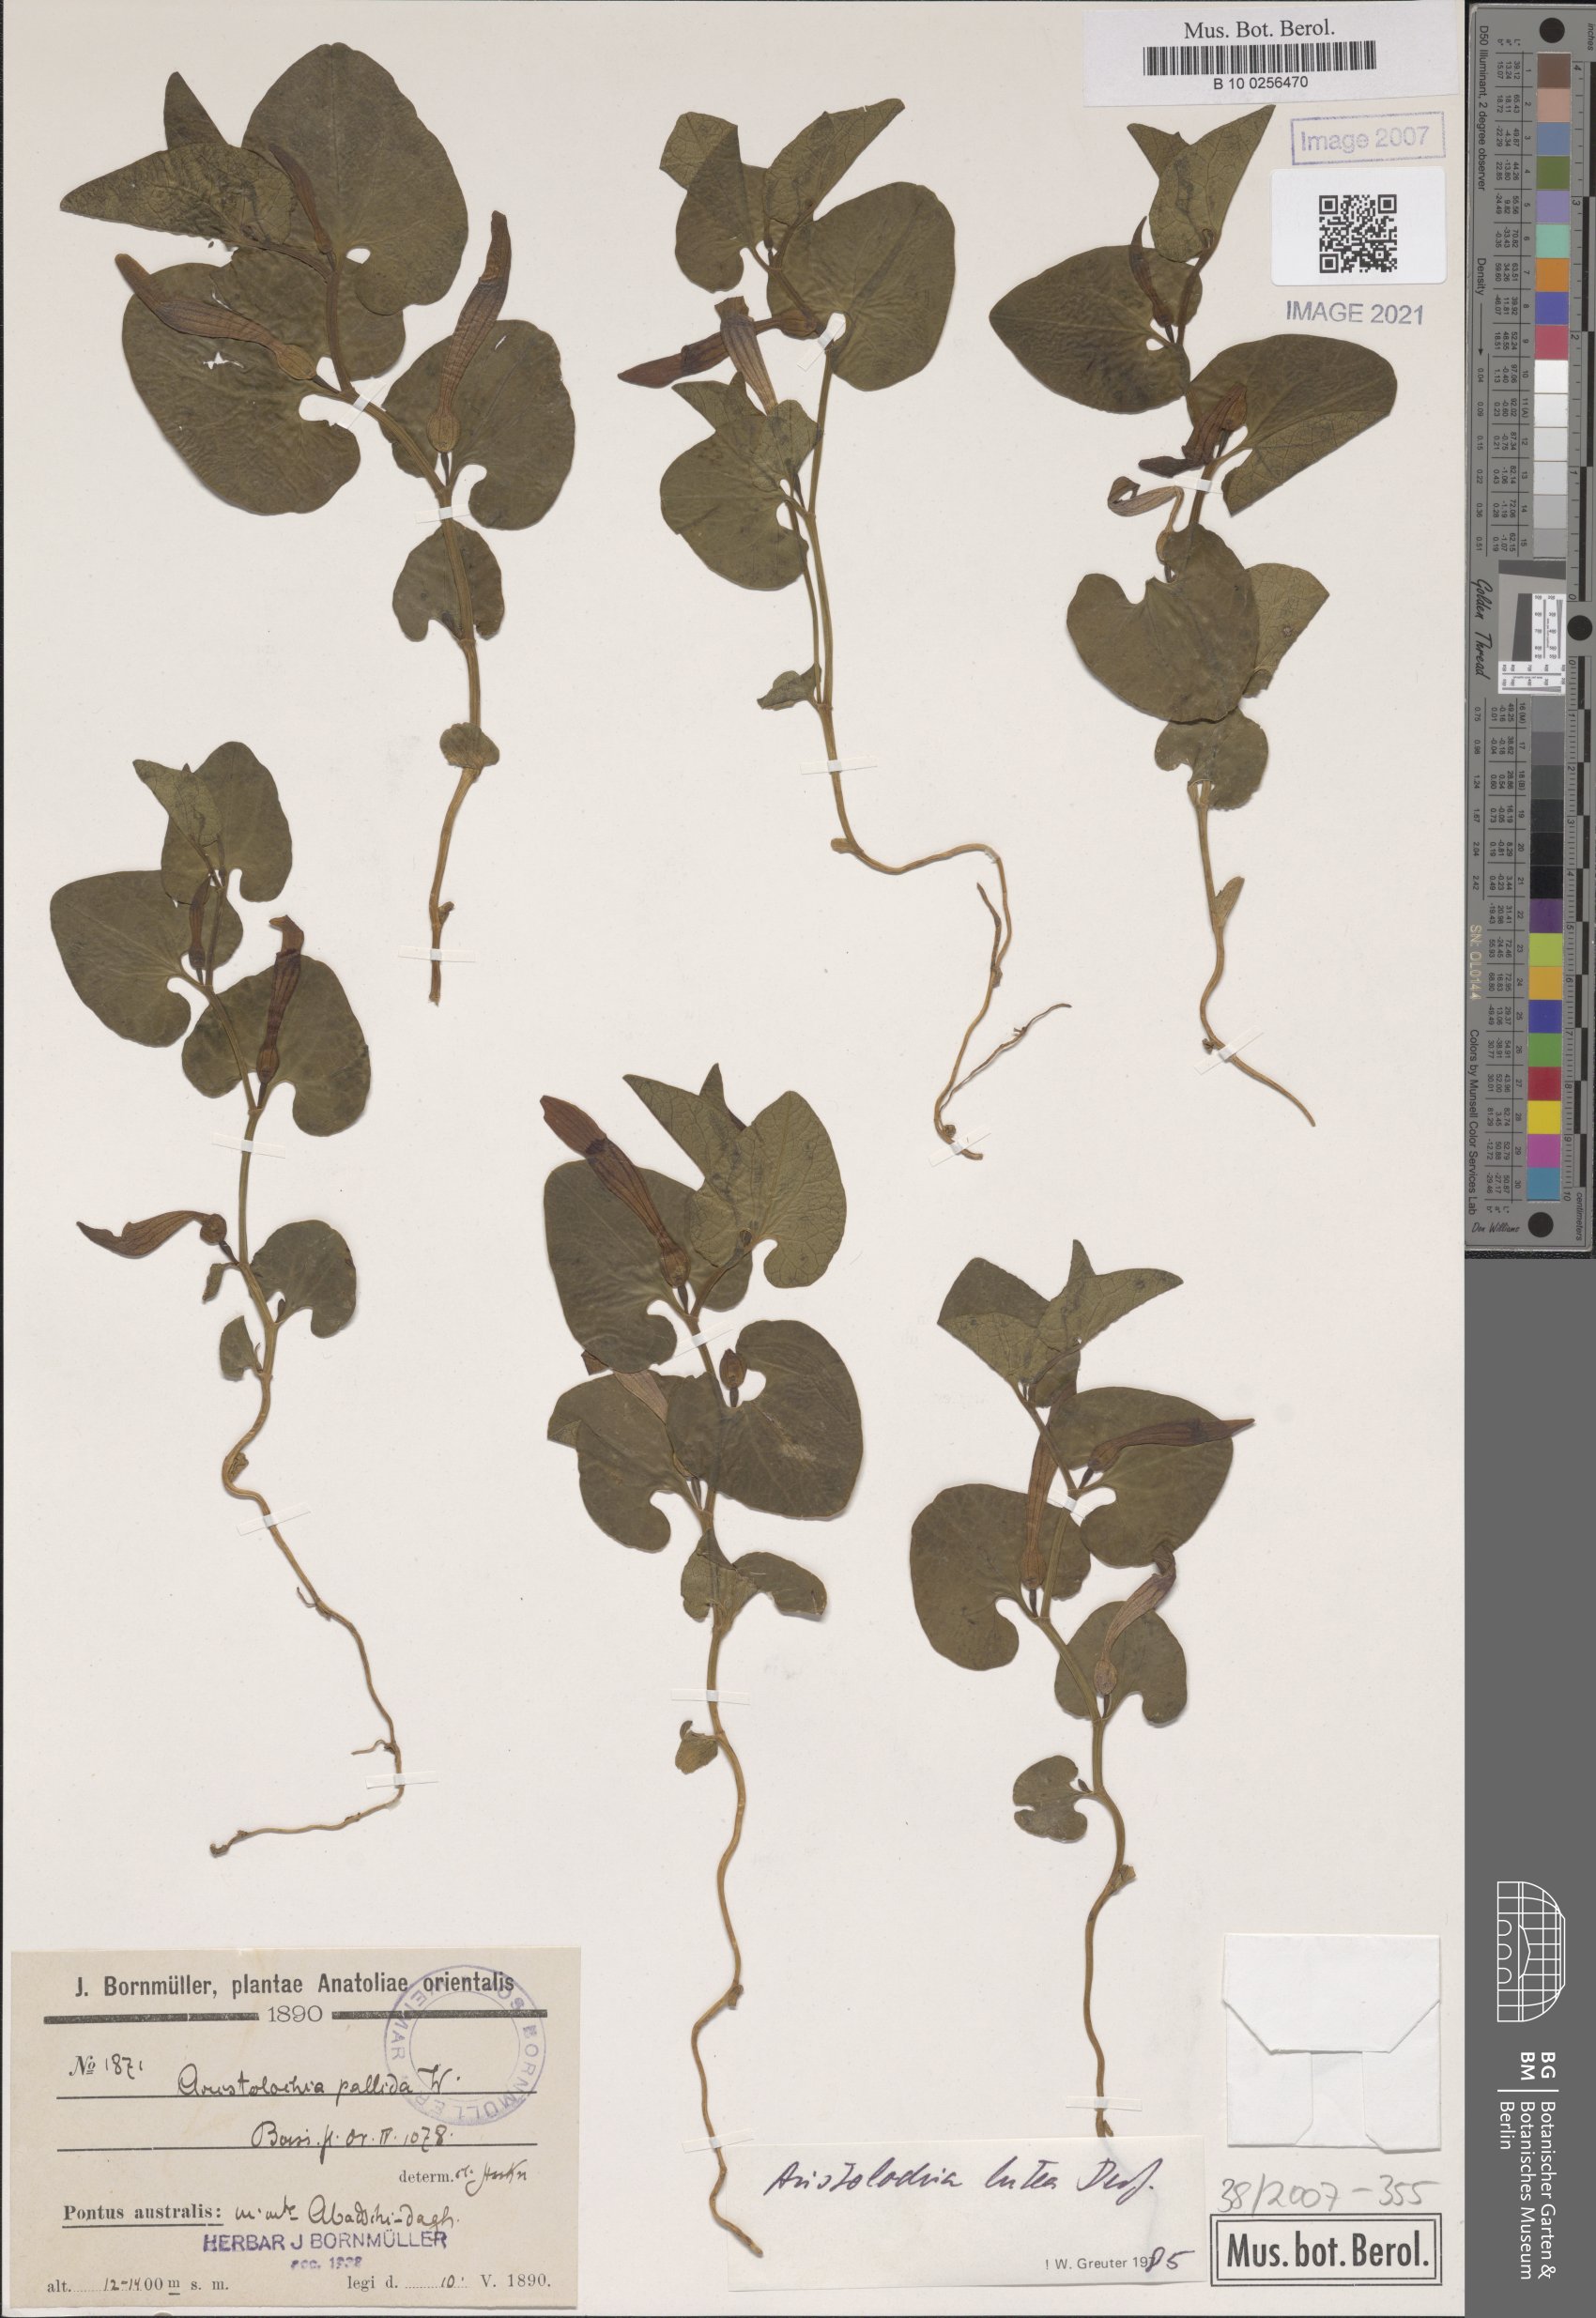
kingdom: Plantae
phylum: Tracheophyta
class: Magnoliopsida
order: Piperales
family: Aristolochiaceae
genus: Aristolochia
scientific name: Aristolochia lutea
